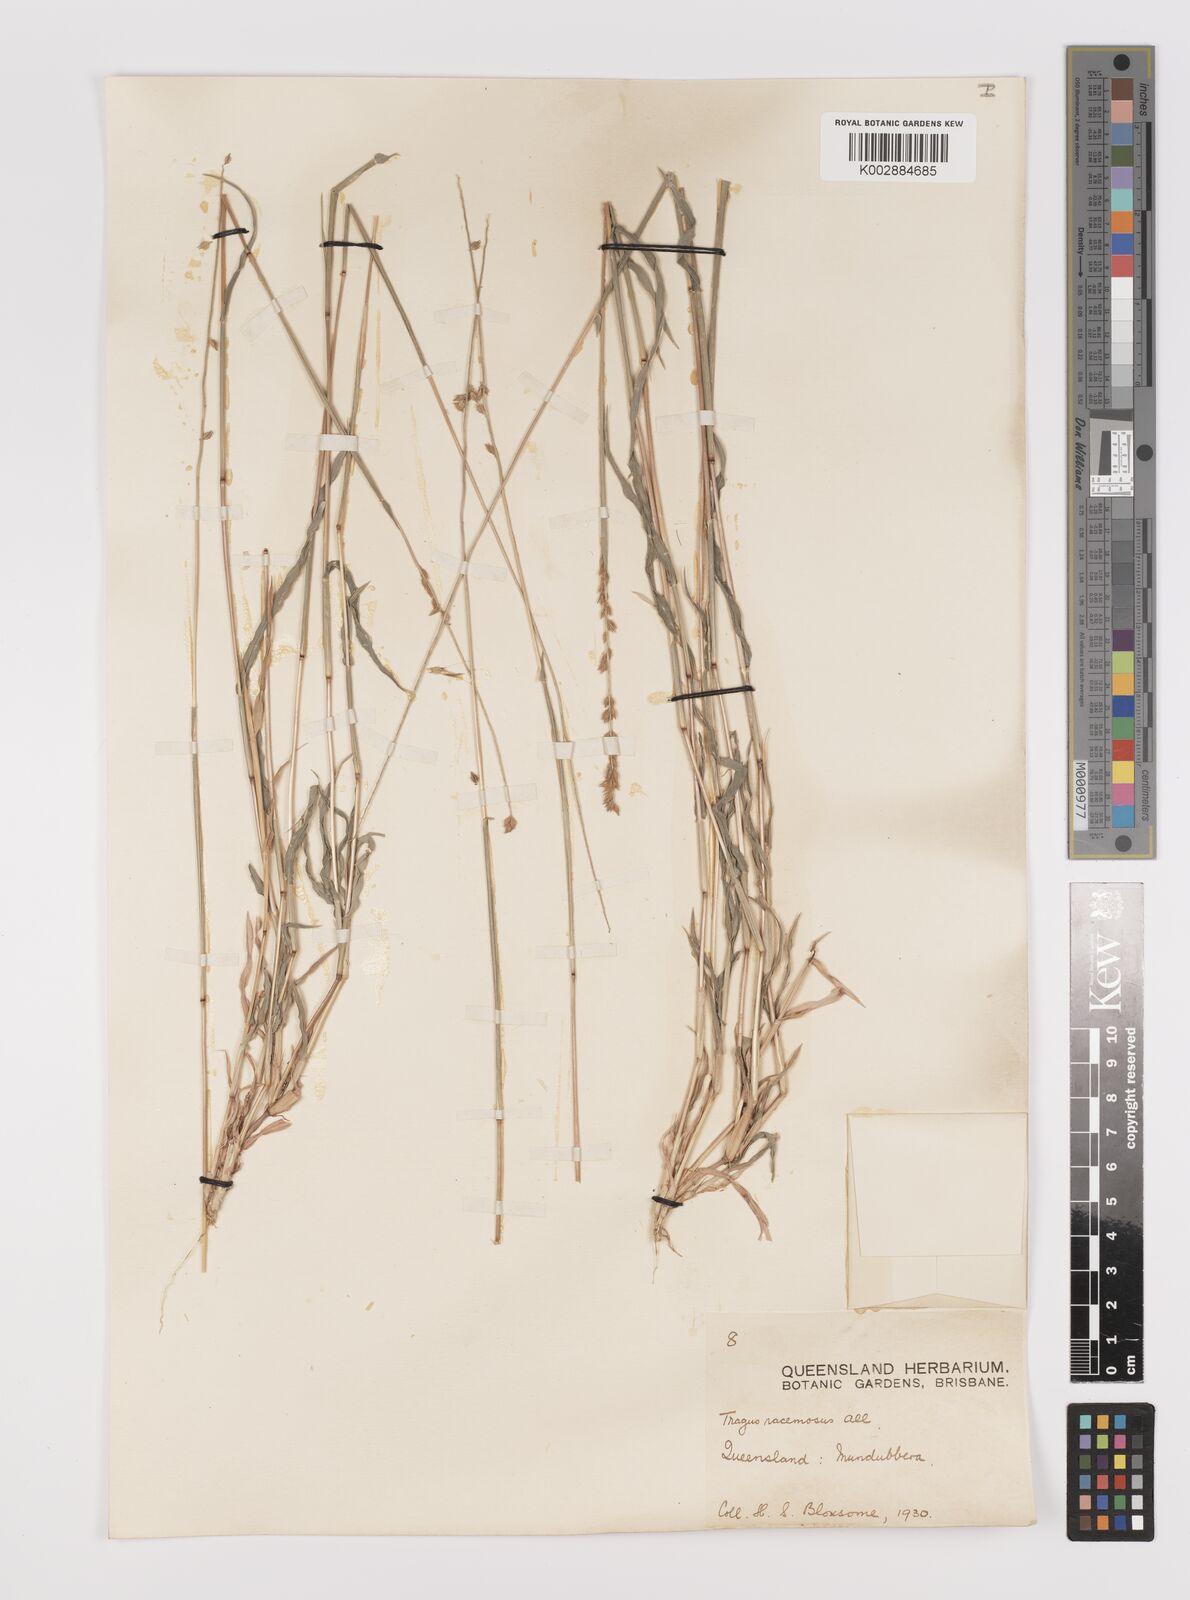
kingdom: Plantae
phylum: Tracheophyta
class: Liliopsida
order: Poales
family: Poaceae
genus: Tragus
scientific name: Tragus australianus
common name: Australian bur-grass
